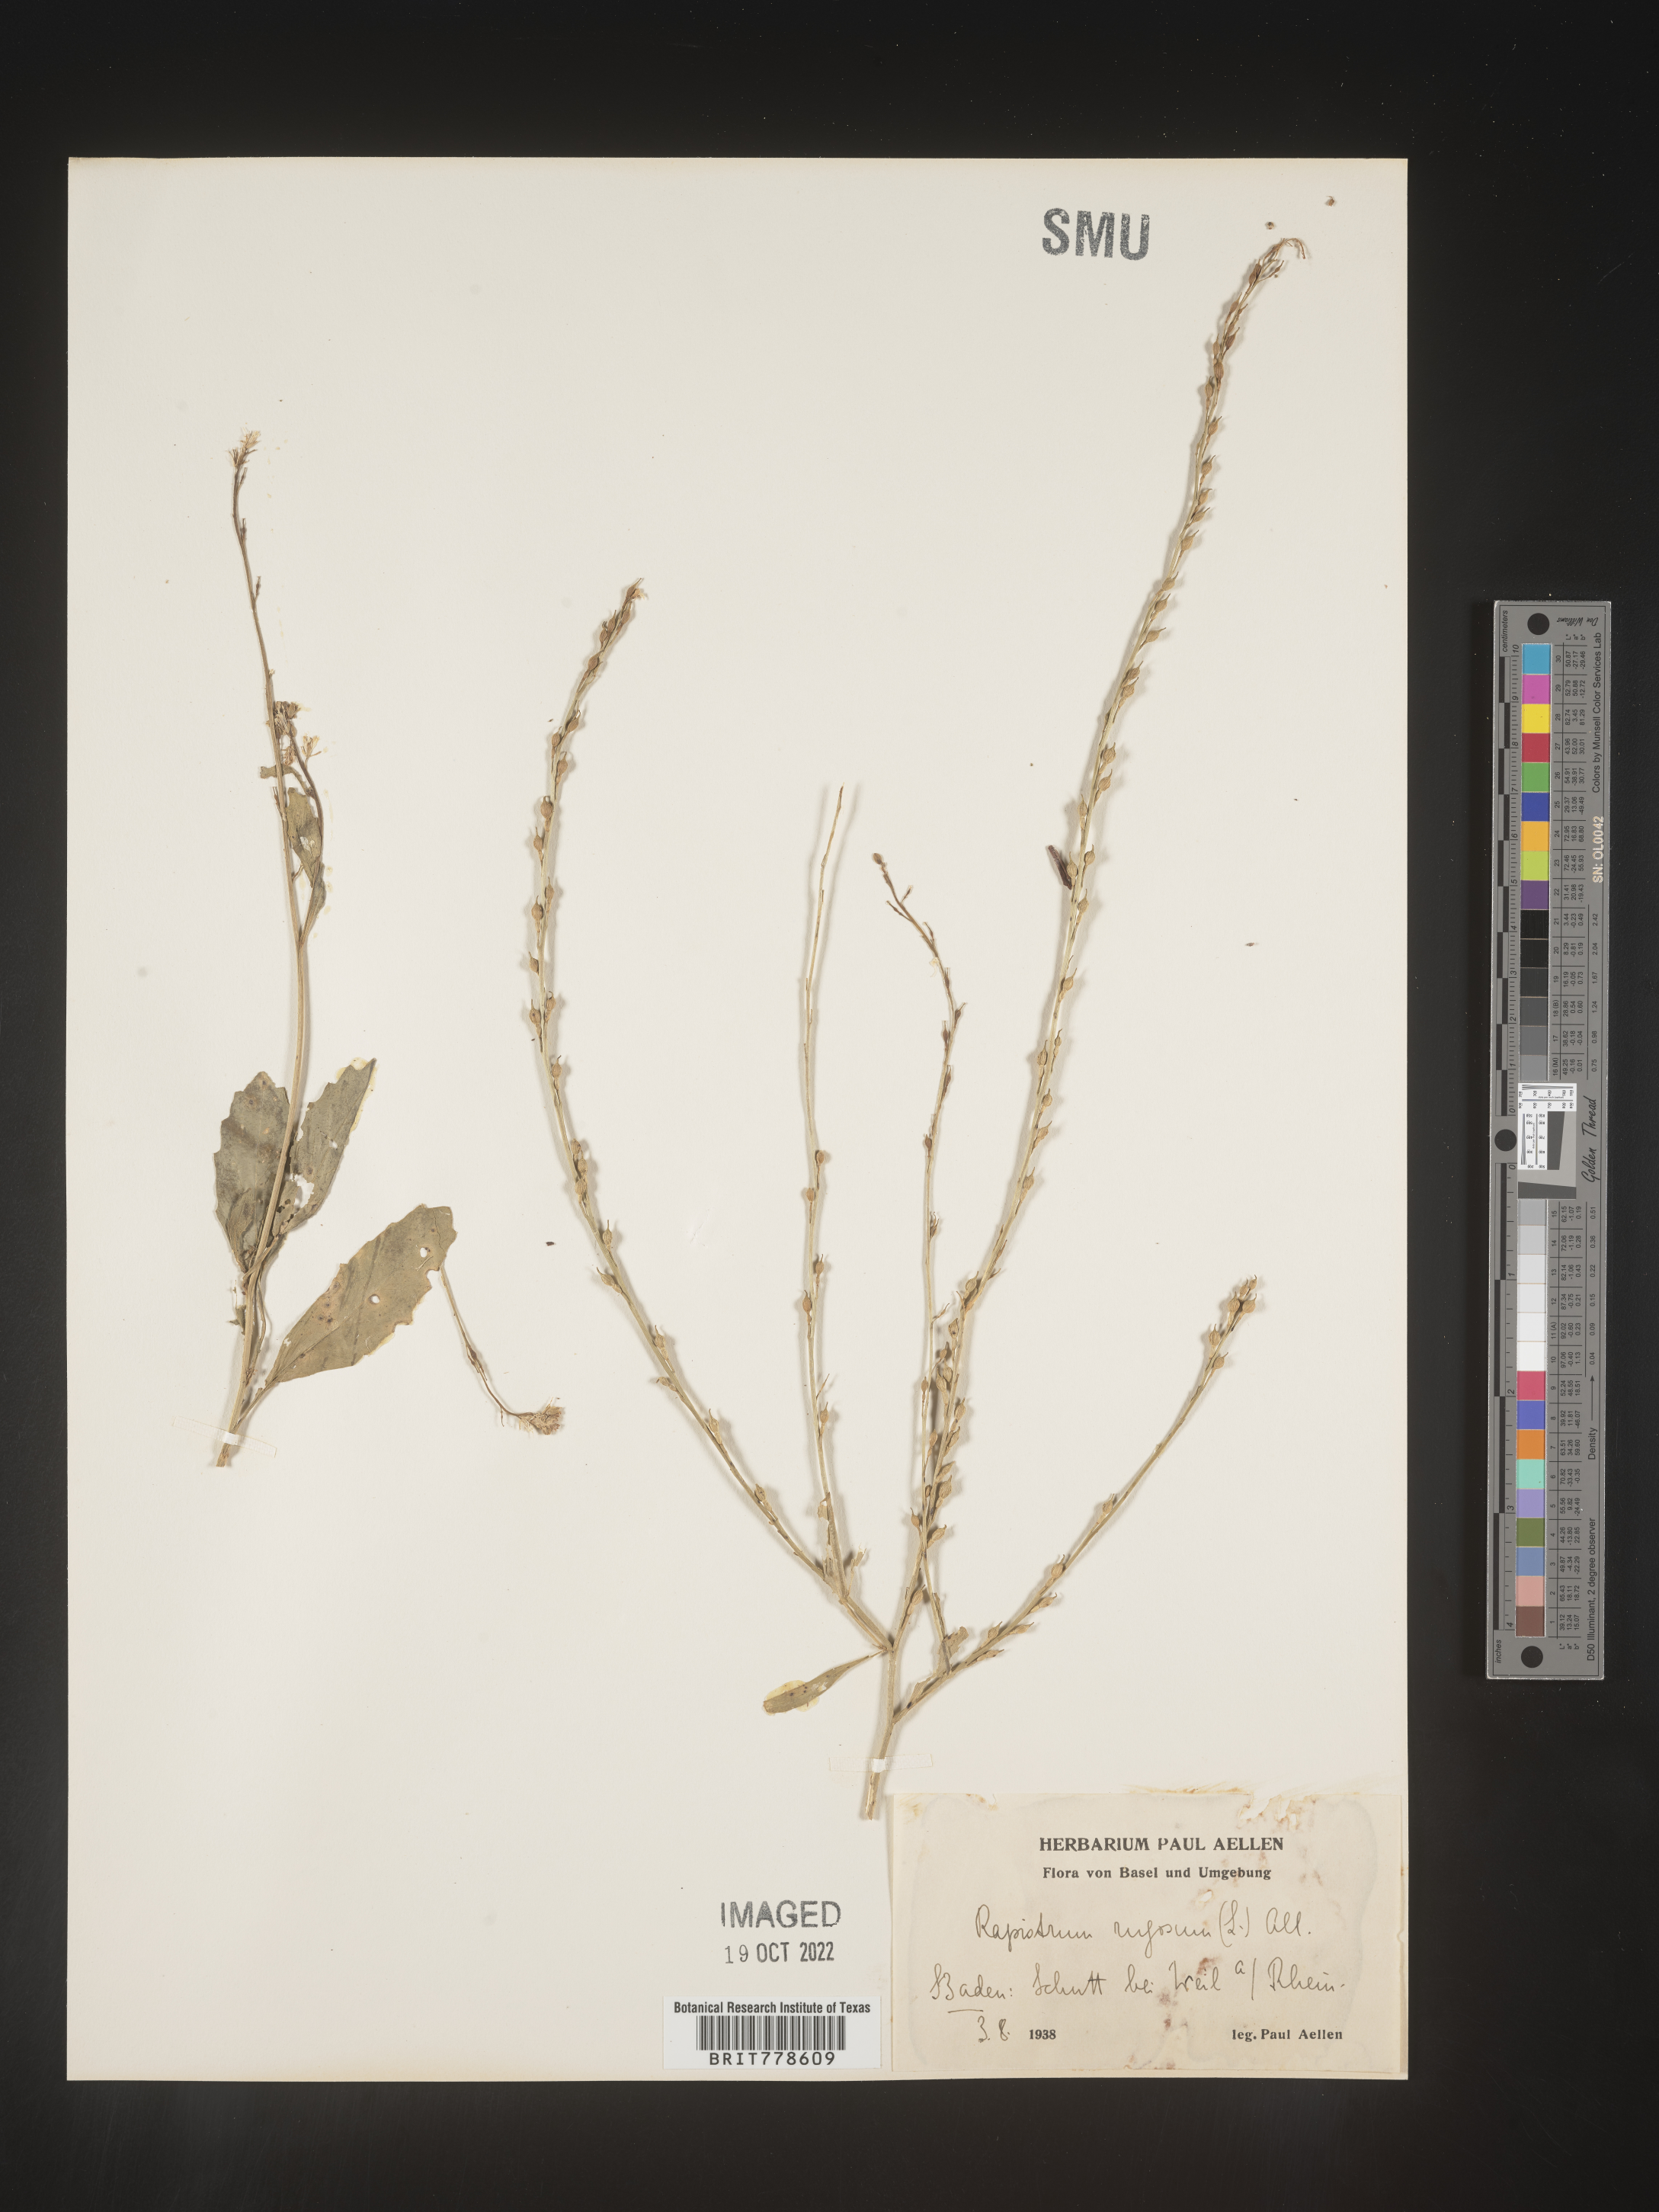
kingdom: Plantae
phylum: Tracheophyta
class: Magnoliopsida
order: Brassicales
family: Brassicaceae
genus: Rapistrum
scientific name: Rapistrum
